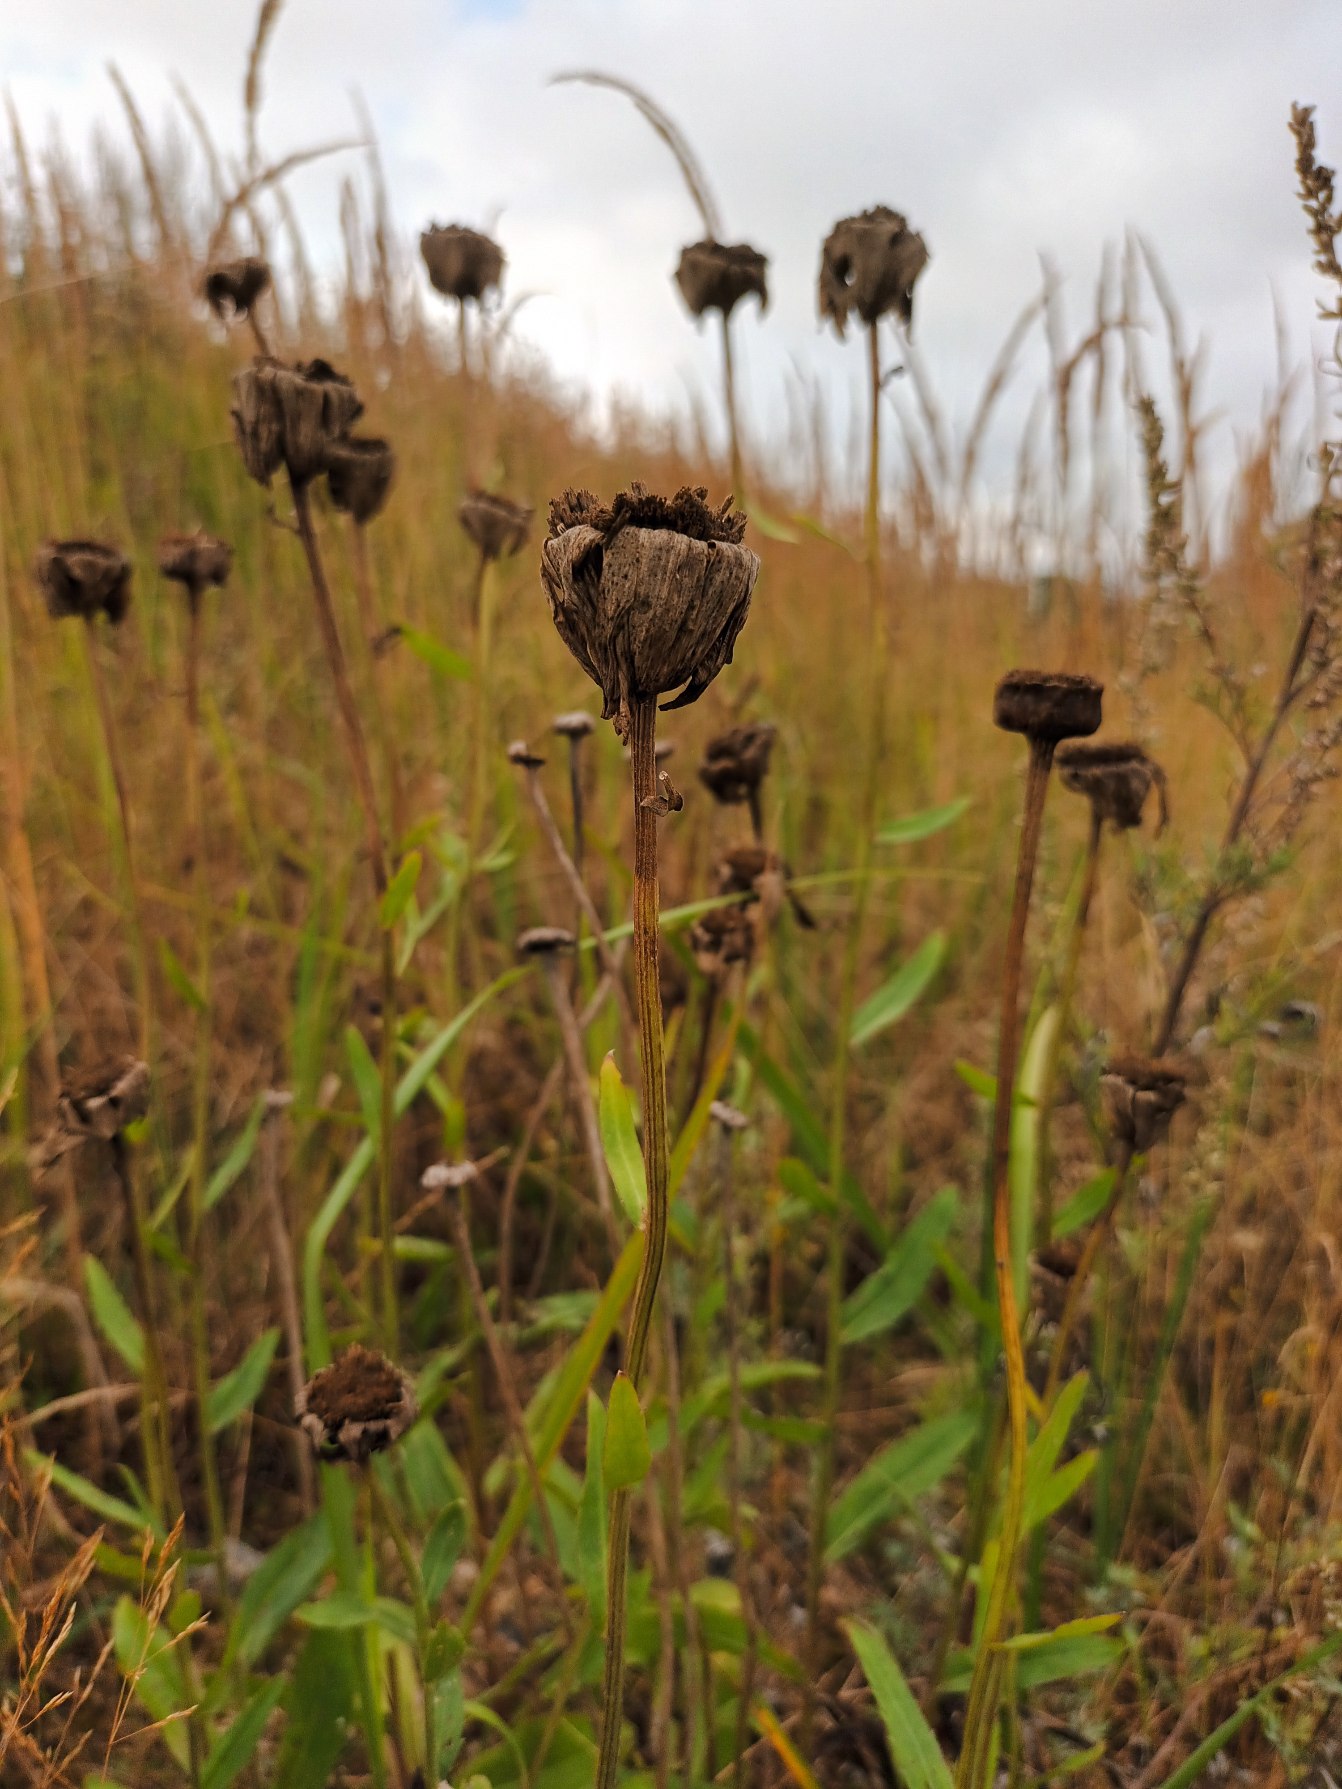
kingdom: Plantae
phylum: Tracheophyta
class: Magnoliopsida
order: Asterales
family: Asteraceae
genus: Leucanthemum
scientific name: Leucanthemum superbum
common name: Kæmpe-margerit
